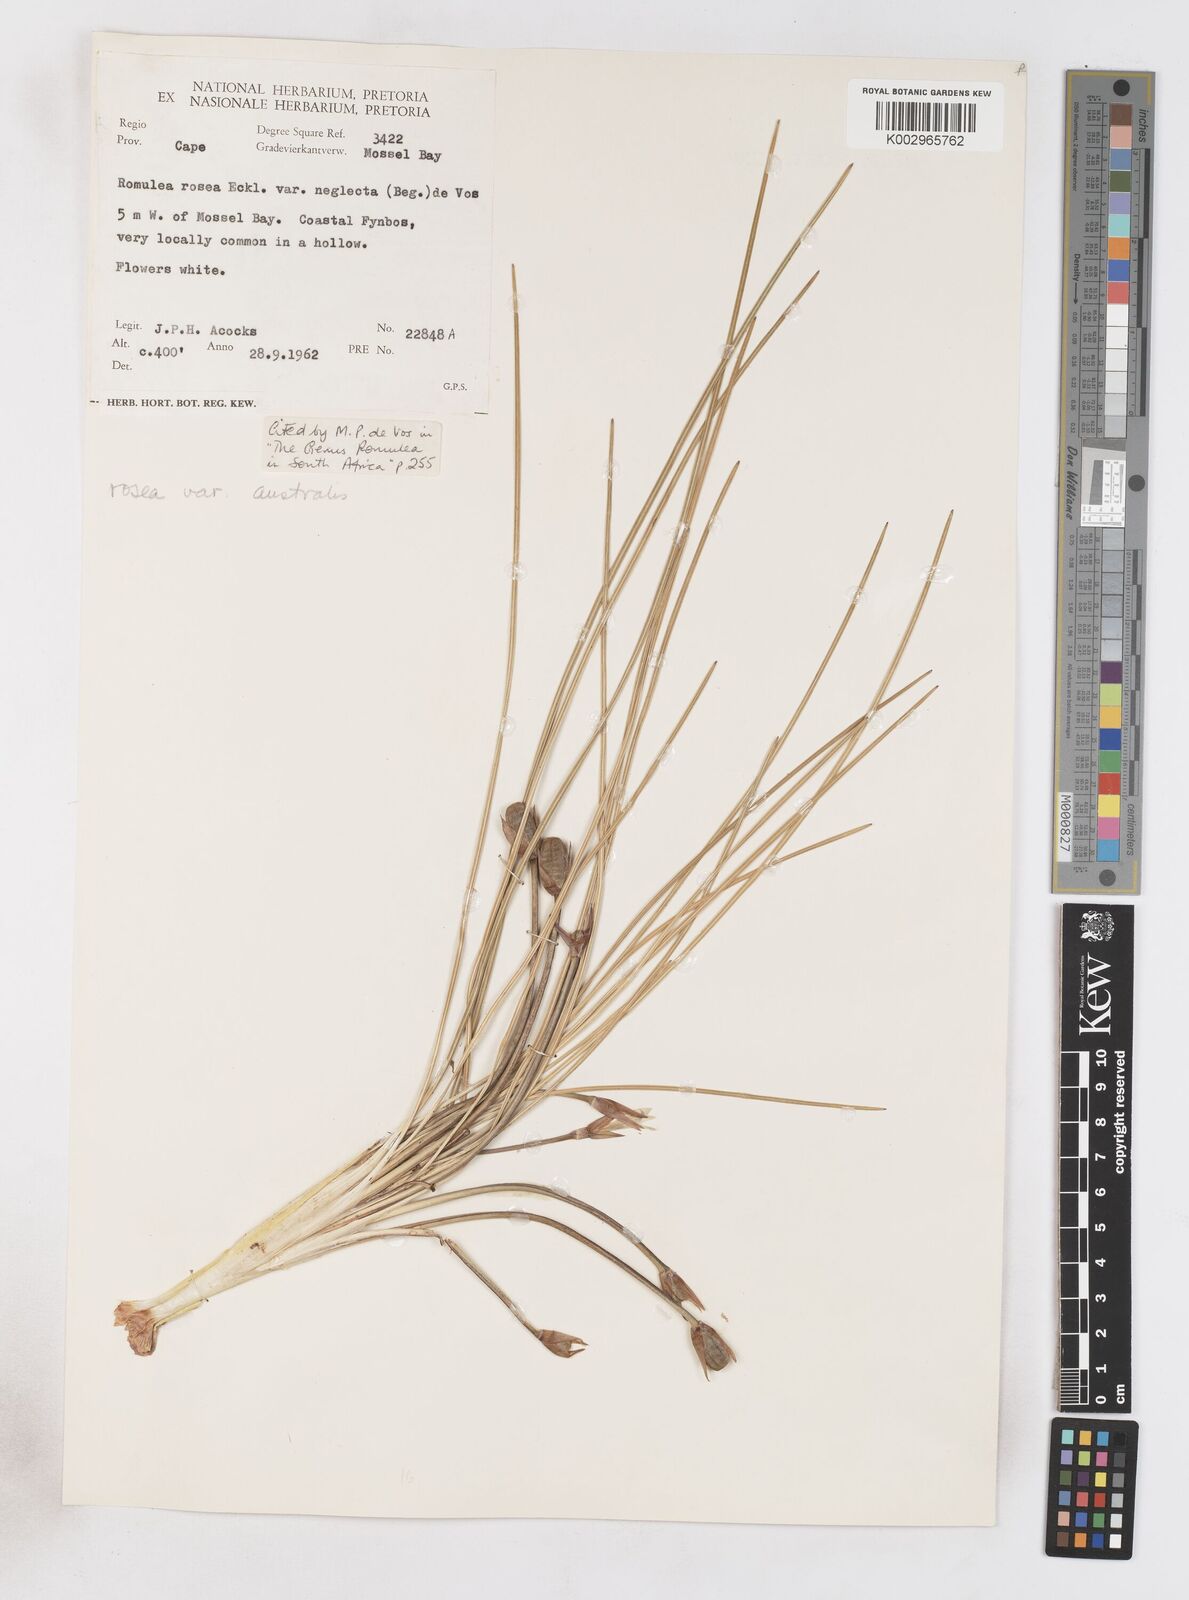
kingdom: Plantae
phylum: Tracheophyta
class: Liliopsida
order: Asparagales
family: Iridaceae
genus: Romulea
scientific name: Romulea rosea
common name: Oniongrass
